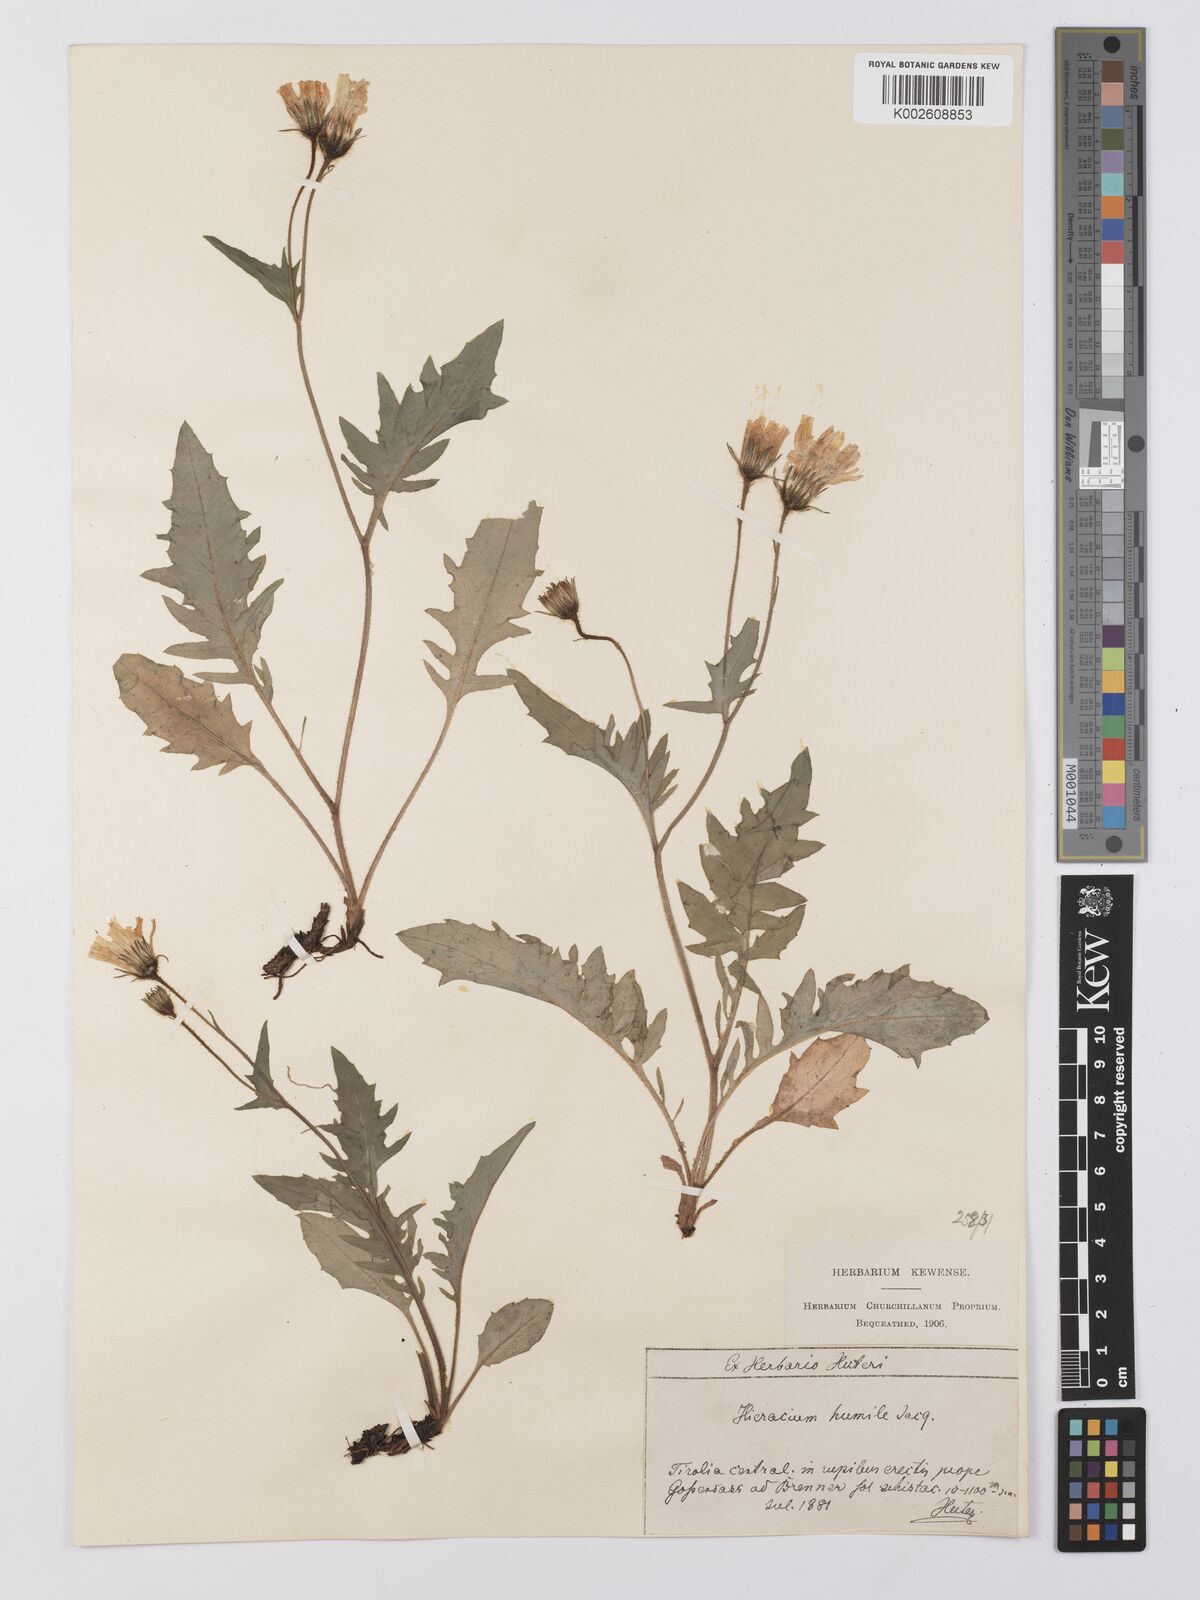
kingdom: Plantae
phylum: Tracheophyta
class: Magnoliopsida
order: Asterales
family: Asteraceae
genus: Hieracium
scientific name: Hieracium valoddae
